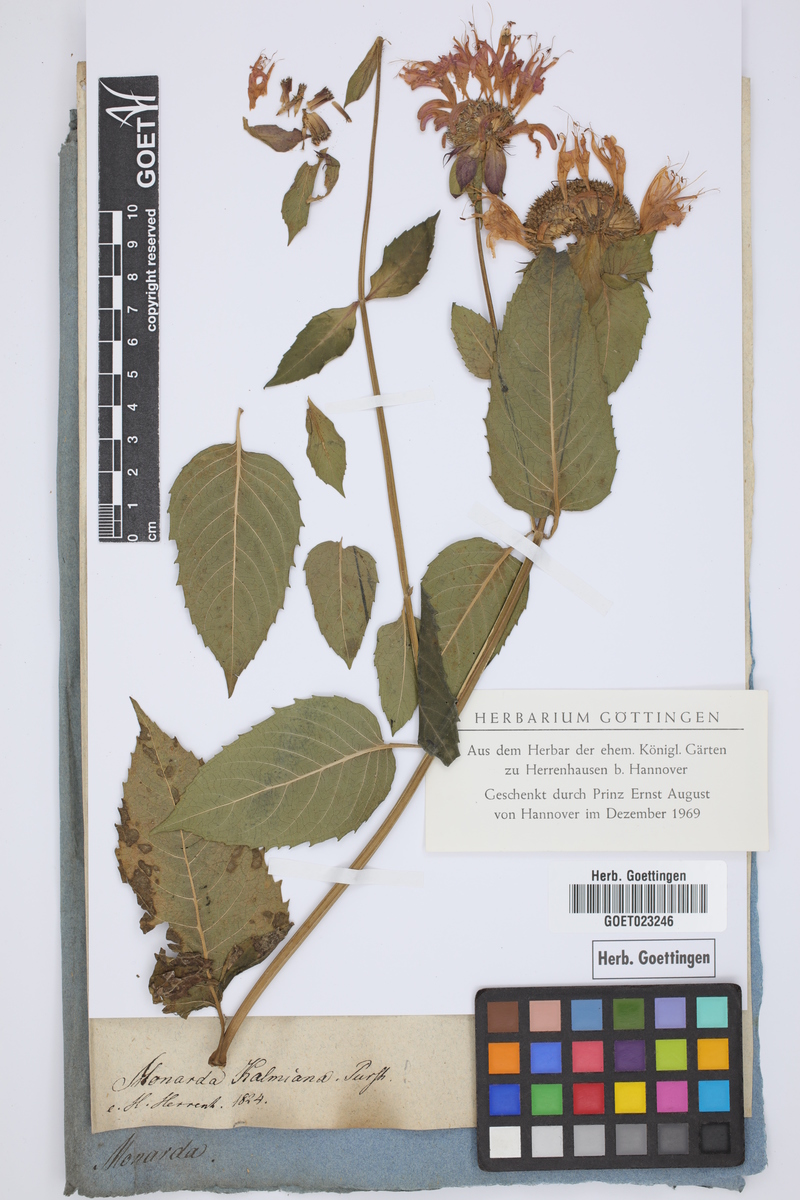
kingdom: Plantae
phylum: Tracheophyta
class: Magnoliopsida
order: Lamiales
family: Lamiaceae
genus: Monarda
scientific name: Monarda didyma
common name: Beebalm
